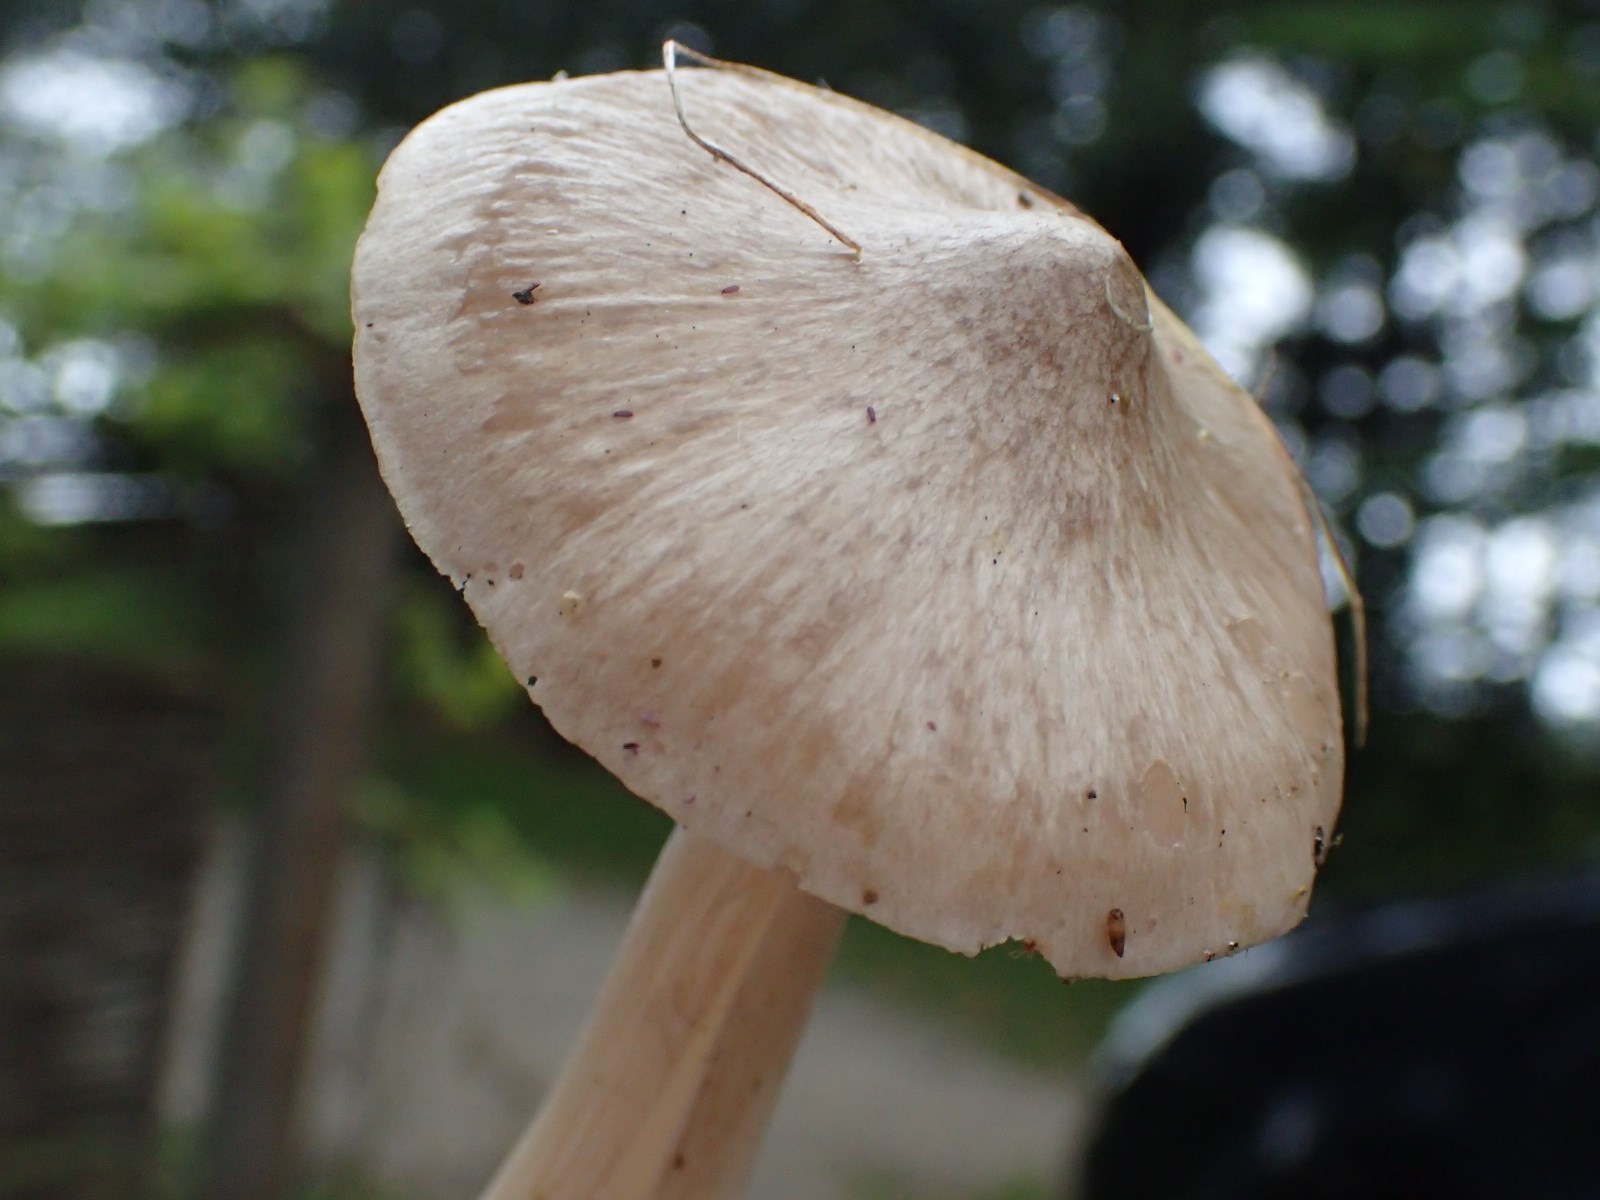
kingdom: Fungi
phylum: Basidiomycota
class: Agaricomycetes
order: Agaricales
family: Entolomataceae
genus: Entoloma
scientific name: Entoloma prunuloides
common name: mel-rødblad
